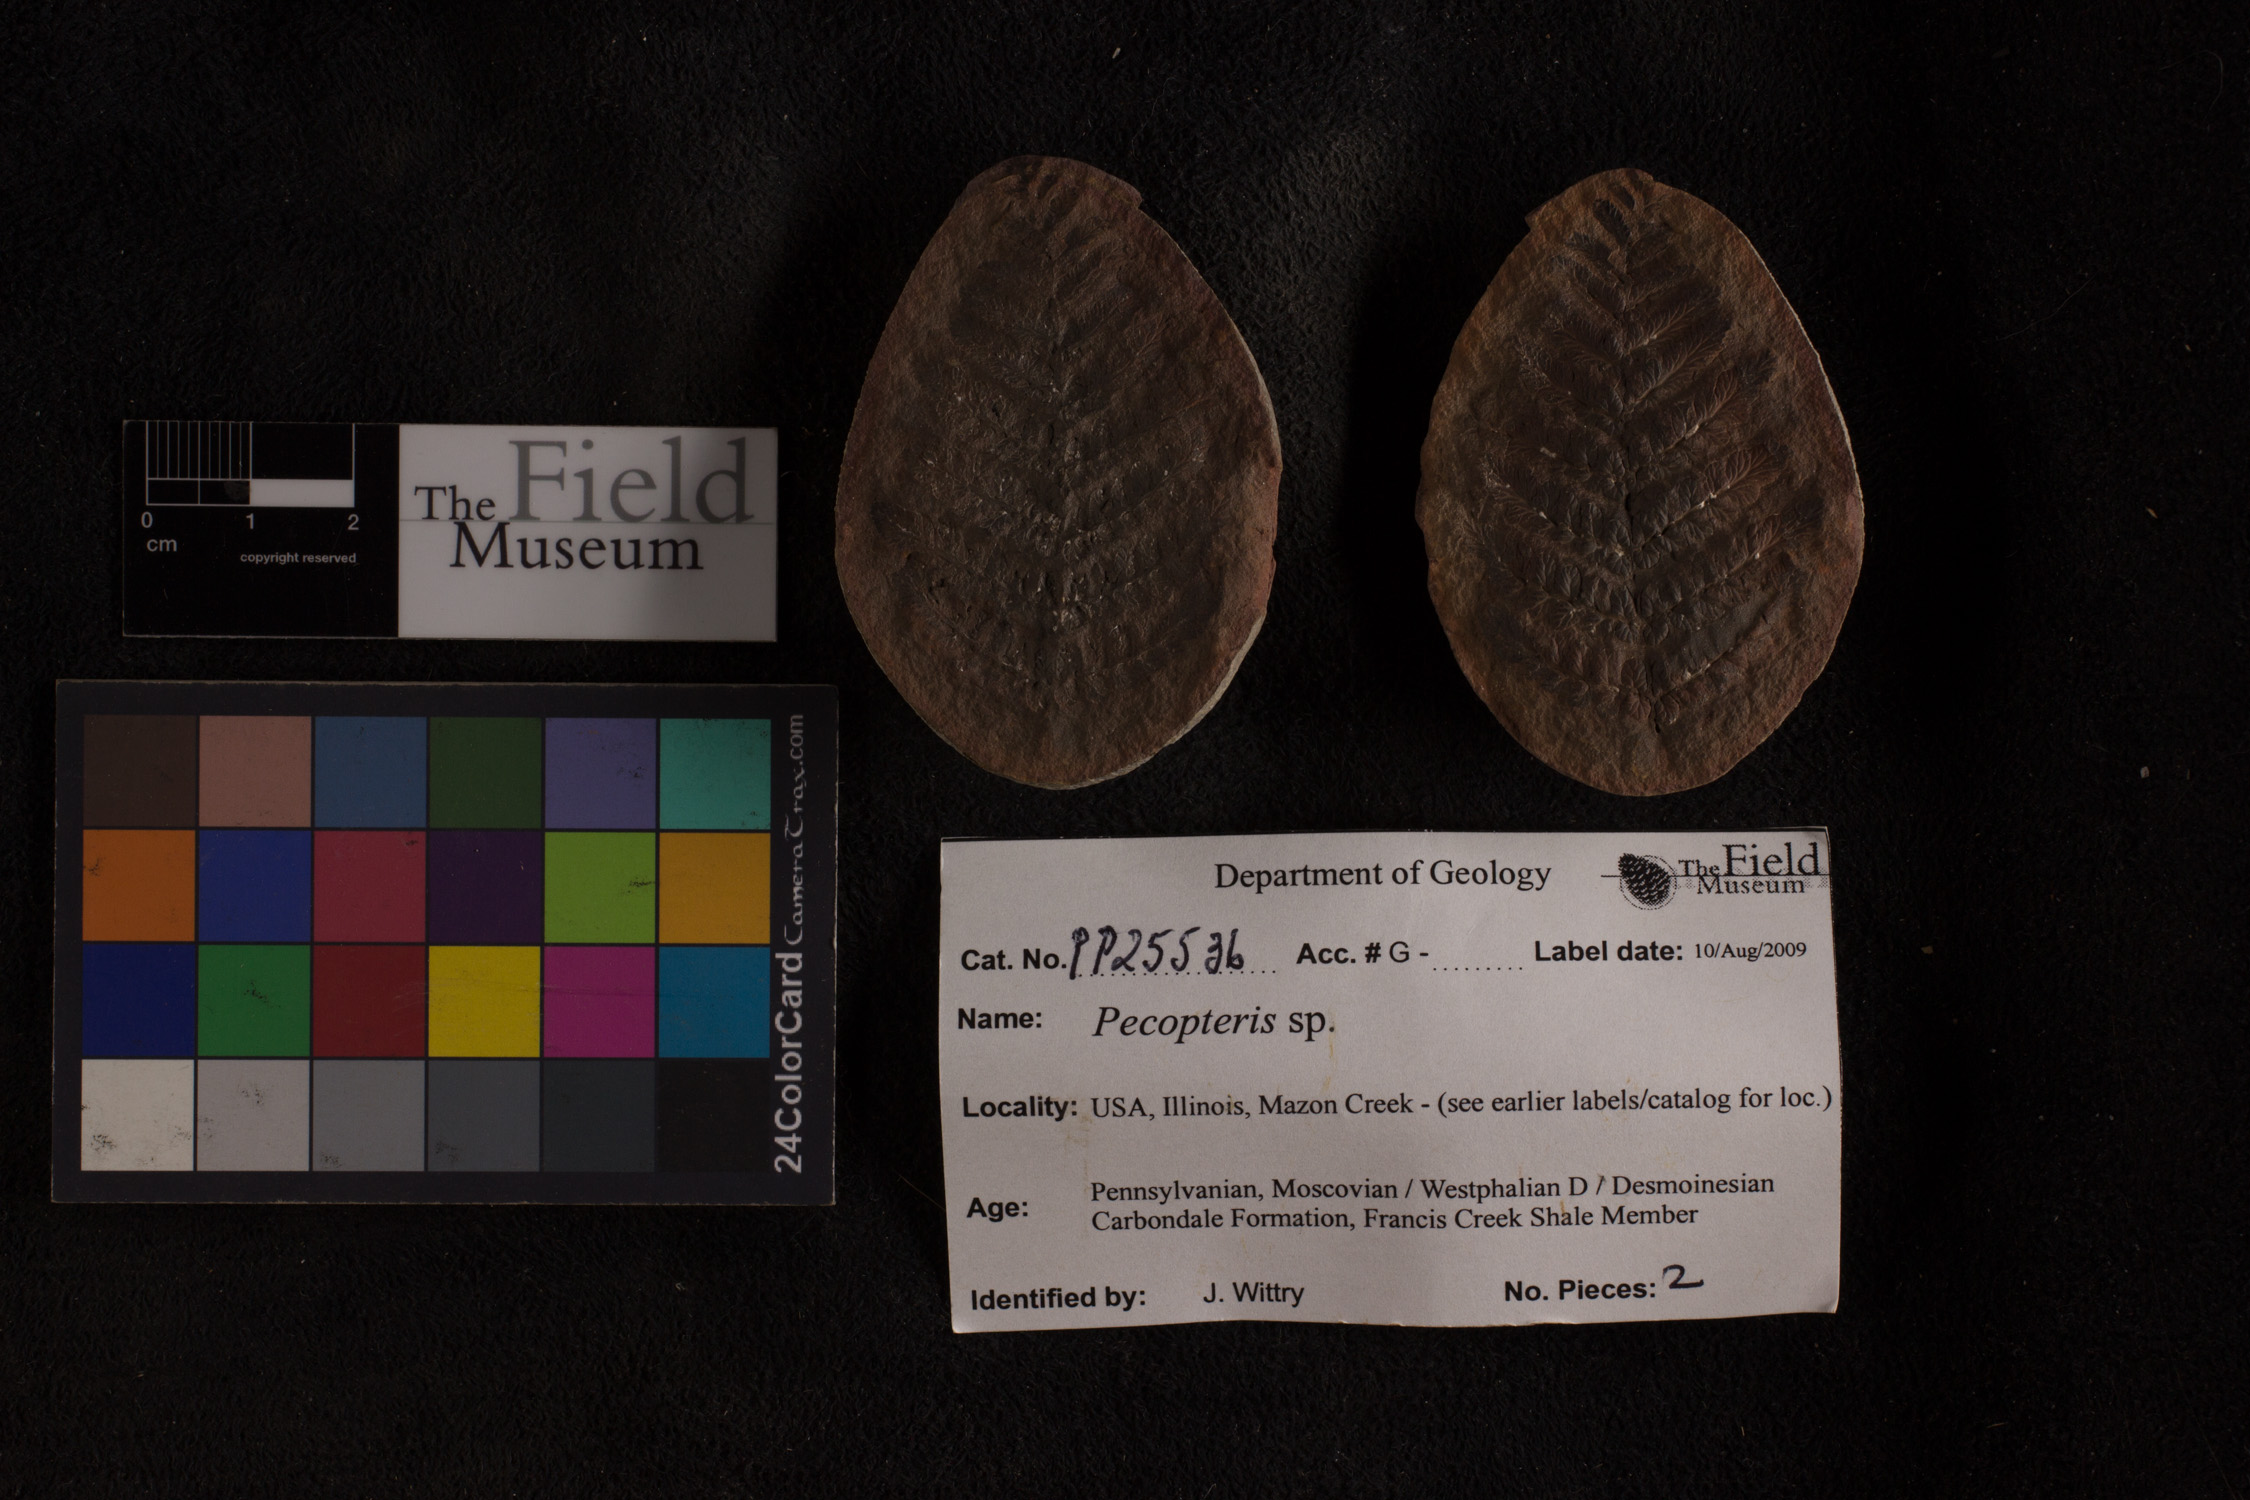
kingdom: Plantae
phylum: Tracheophyta
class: Polypodiopsida
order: Marattiales
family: Asterothecaceae
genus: Pecopteris
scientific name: Pecopteris
